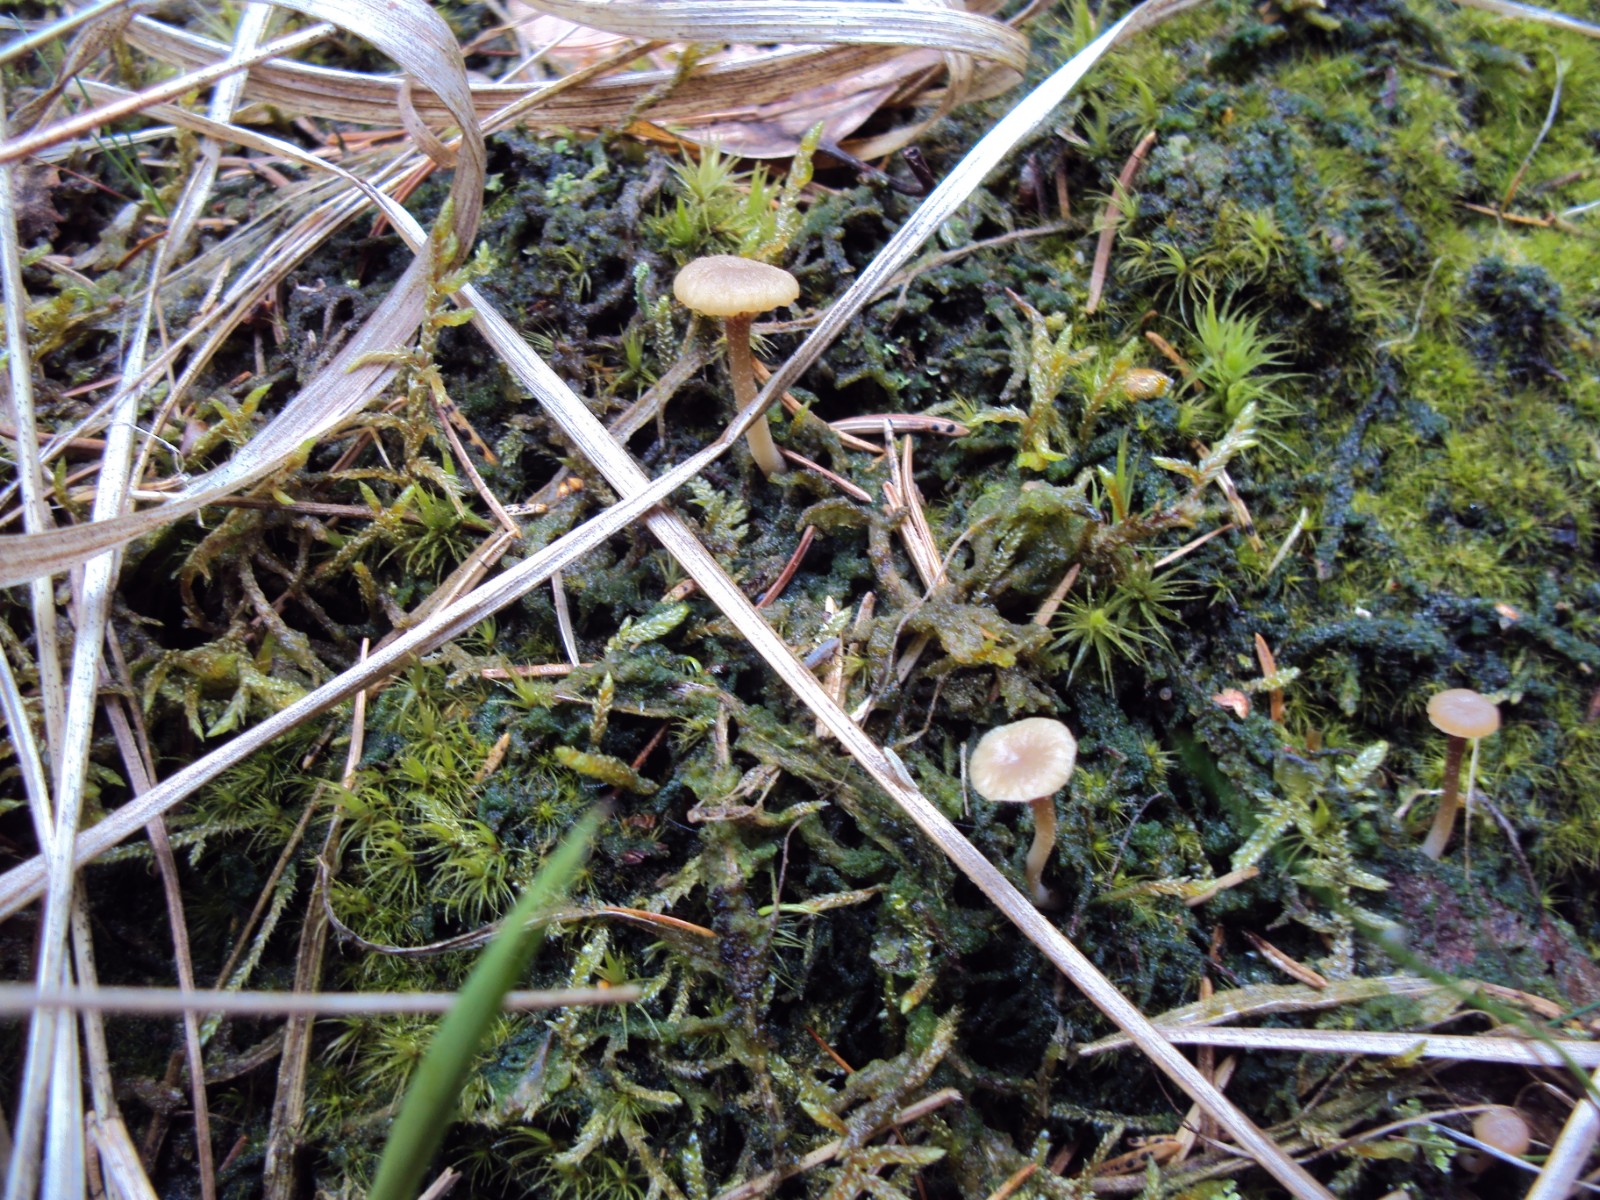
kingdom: Fungi
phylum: Basidiomycota
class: Agaricomycetes
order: Agaricales
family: Hygrophoraceae
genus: Lichenomphalia
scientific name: Lichenomphalia umbellifera
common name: tørve-lavhat
